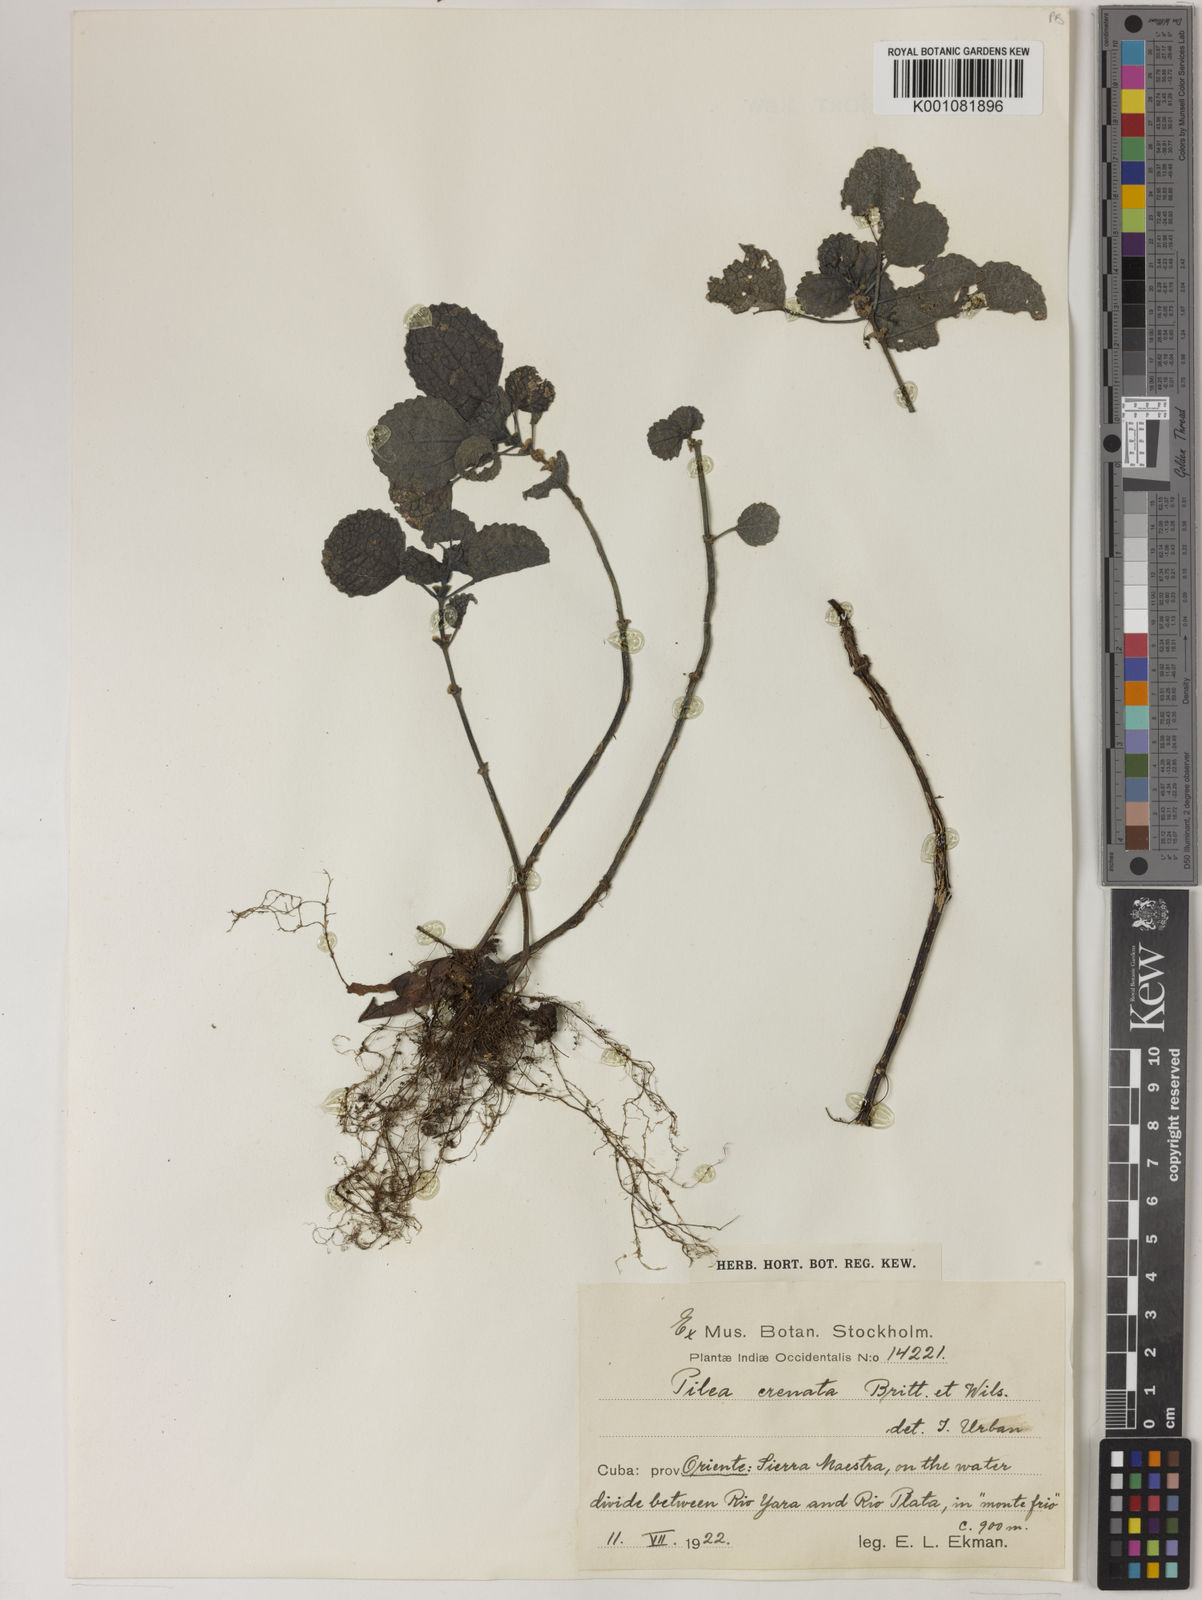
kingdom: Plantae
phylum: Tracheophyta
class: Magnoliopsida
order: Rosales
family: Urticaceae
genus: Pilea
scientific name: Pilea crenata
